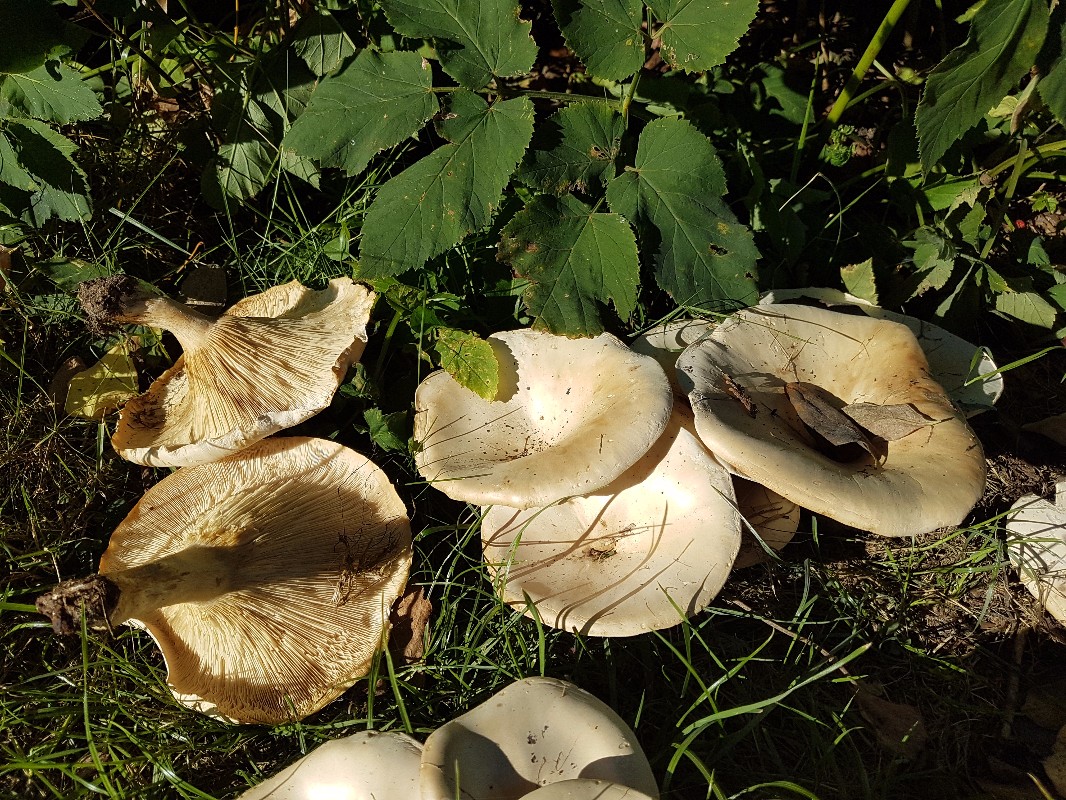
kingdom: Fungi
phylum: Basidiomycota
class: Agaricomycetes
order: Agaricales
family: Tricholomataceae
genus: Aspropaxillus
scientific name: Aspropaxillus giganteus
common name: kæmpe-tragtridderhat
